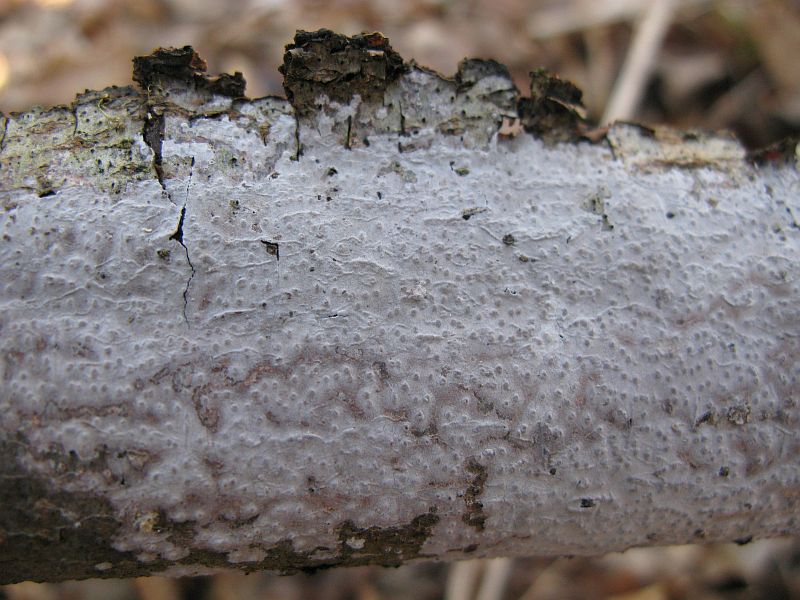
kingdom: Fungi
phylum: Basidiomycota
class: Agaricomycetes
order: Russulales
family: Peniophoraceae
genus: Peniophora
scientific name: Peniophora lycii
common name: grynet voksskind
